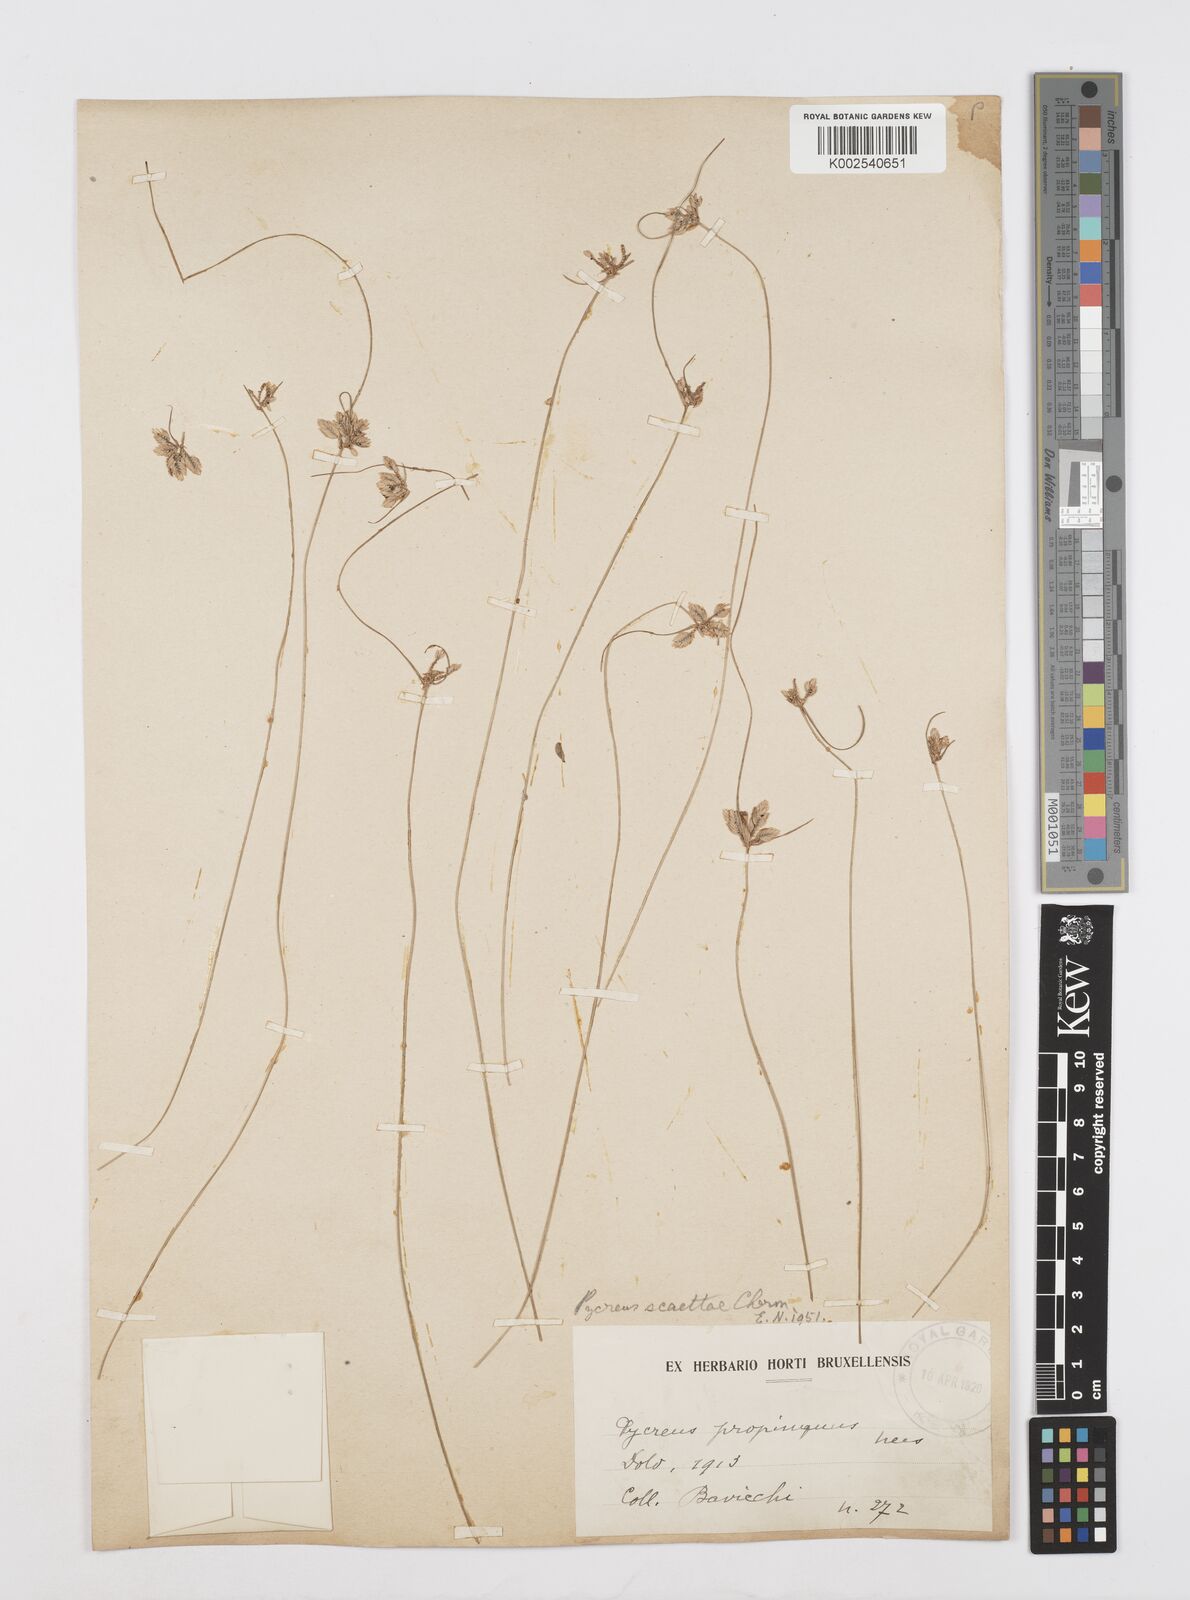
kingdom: Plantae
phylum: Tracheophyta
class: Liliopsida
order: Poales
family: Cyperaceae
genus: Cyperus
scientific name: Cyperus scaettae
